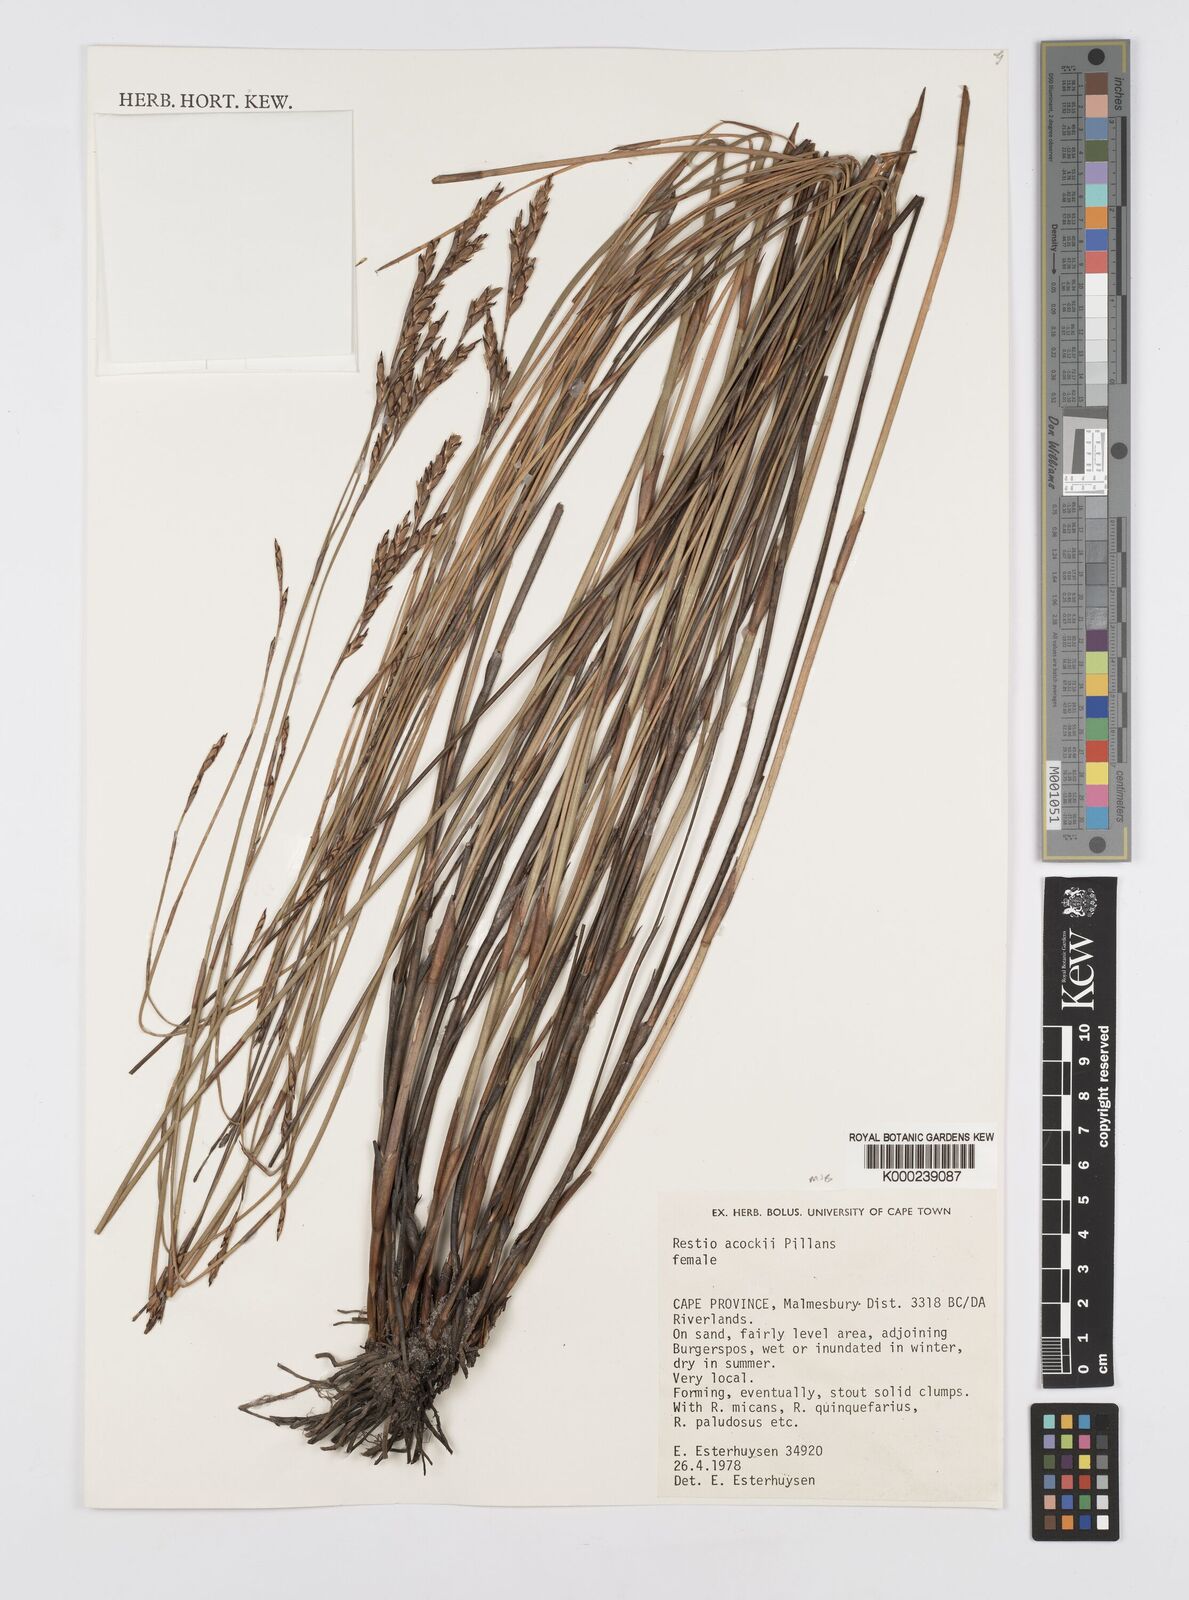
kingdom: Plantae
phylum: Tracheophyta
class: Liliopsida
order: Poales
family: Restionaceae
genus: Restio
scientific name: Restio acockii
